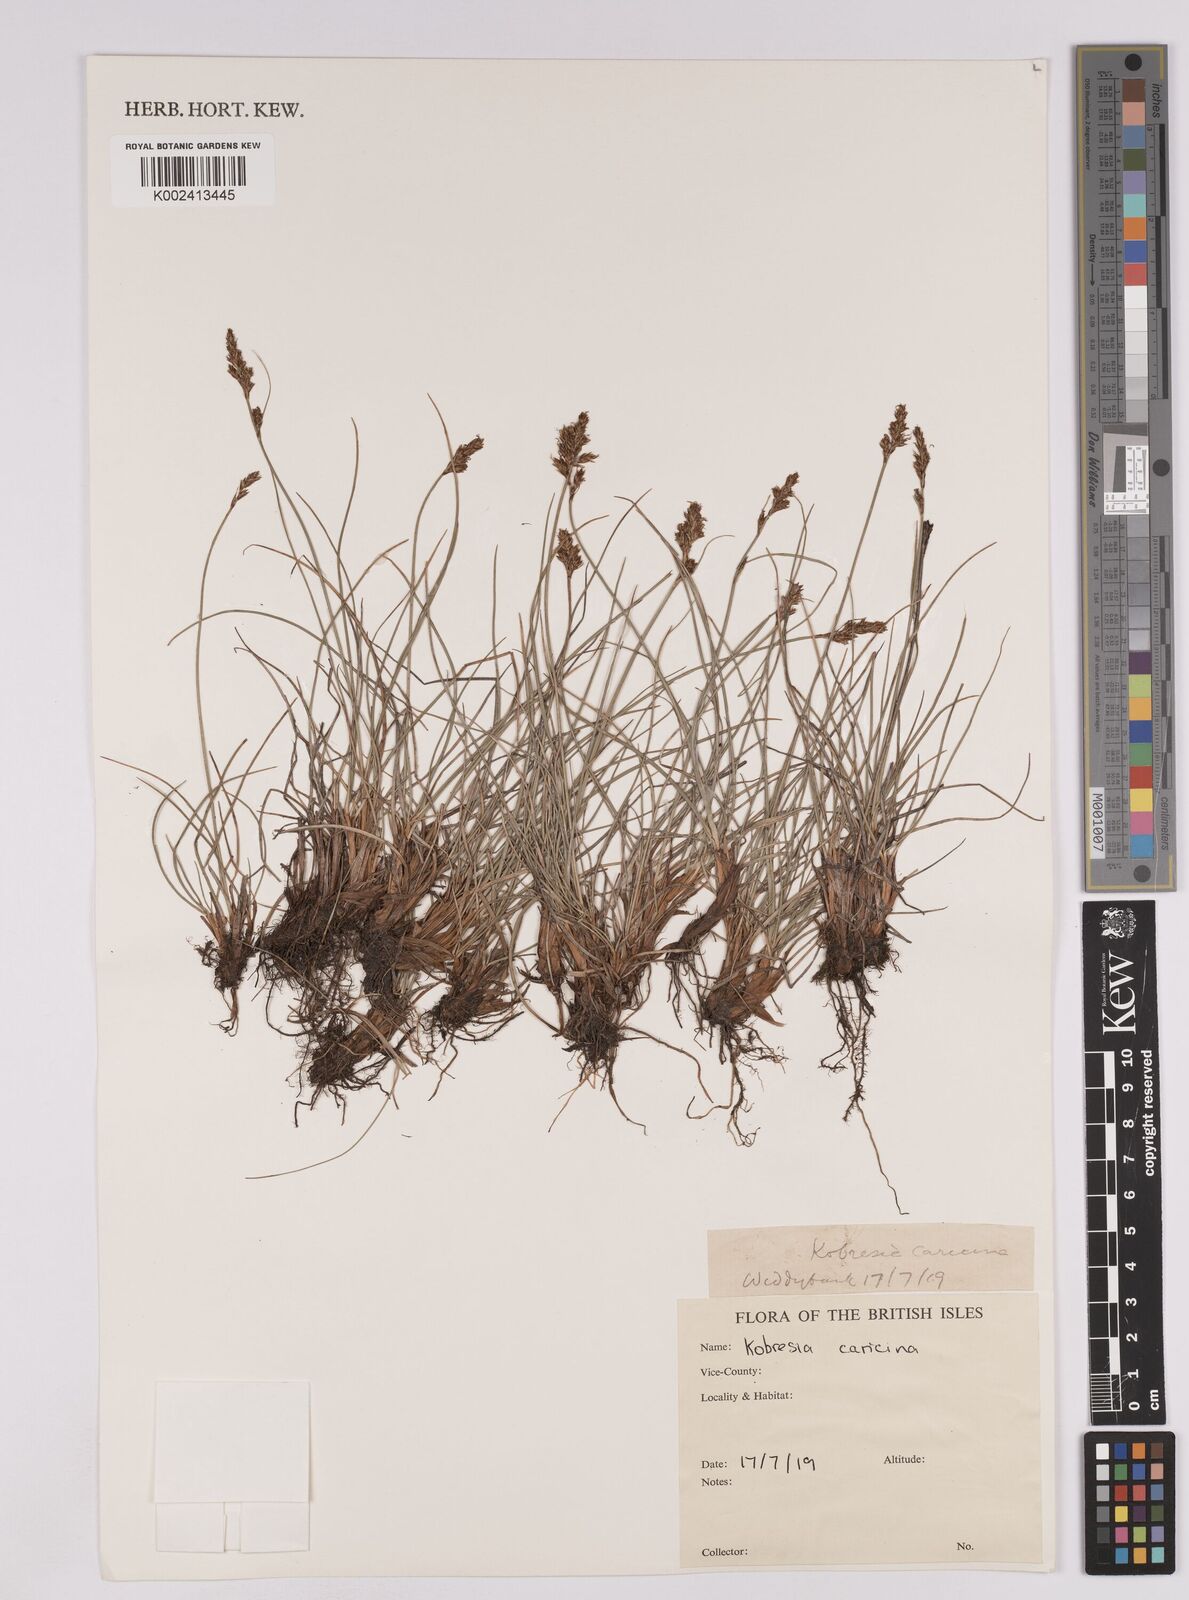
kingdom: Plantae
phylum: Tracheophyta
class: Liliopsida
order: Poales
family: Cyperaceae
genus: Carex
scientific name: Carex simpliciuscula
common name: Simple bog sedge
